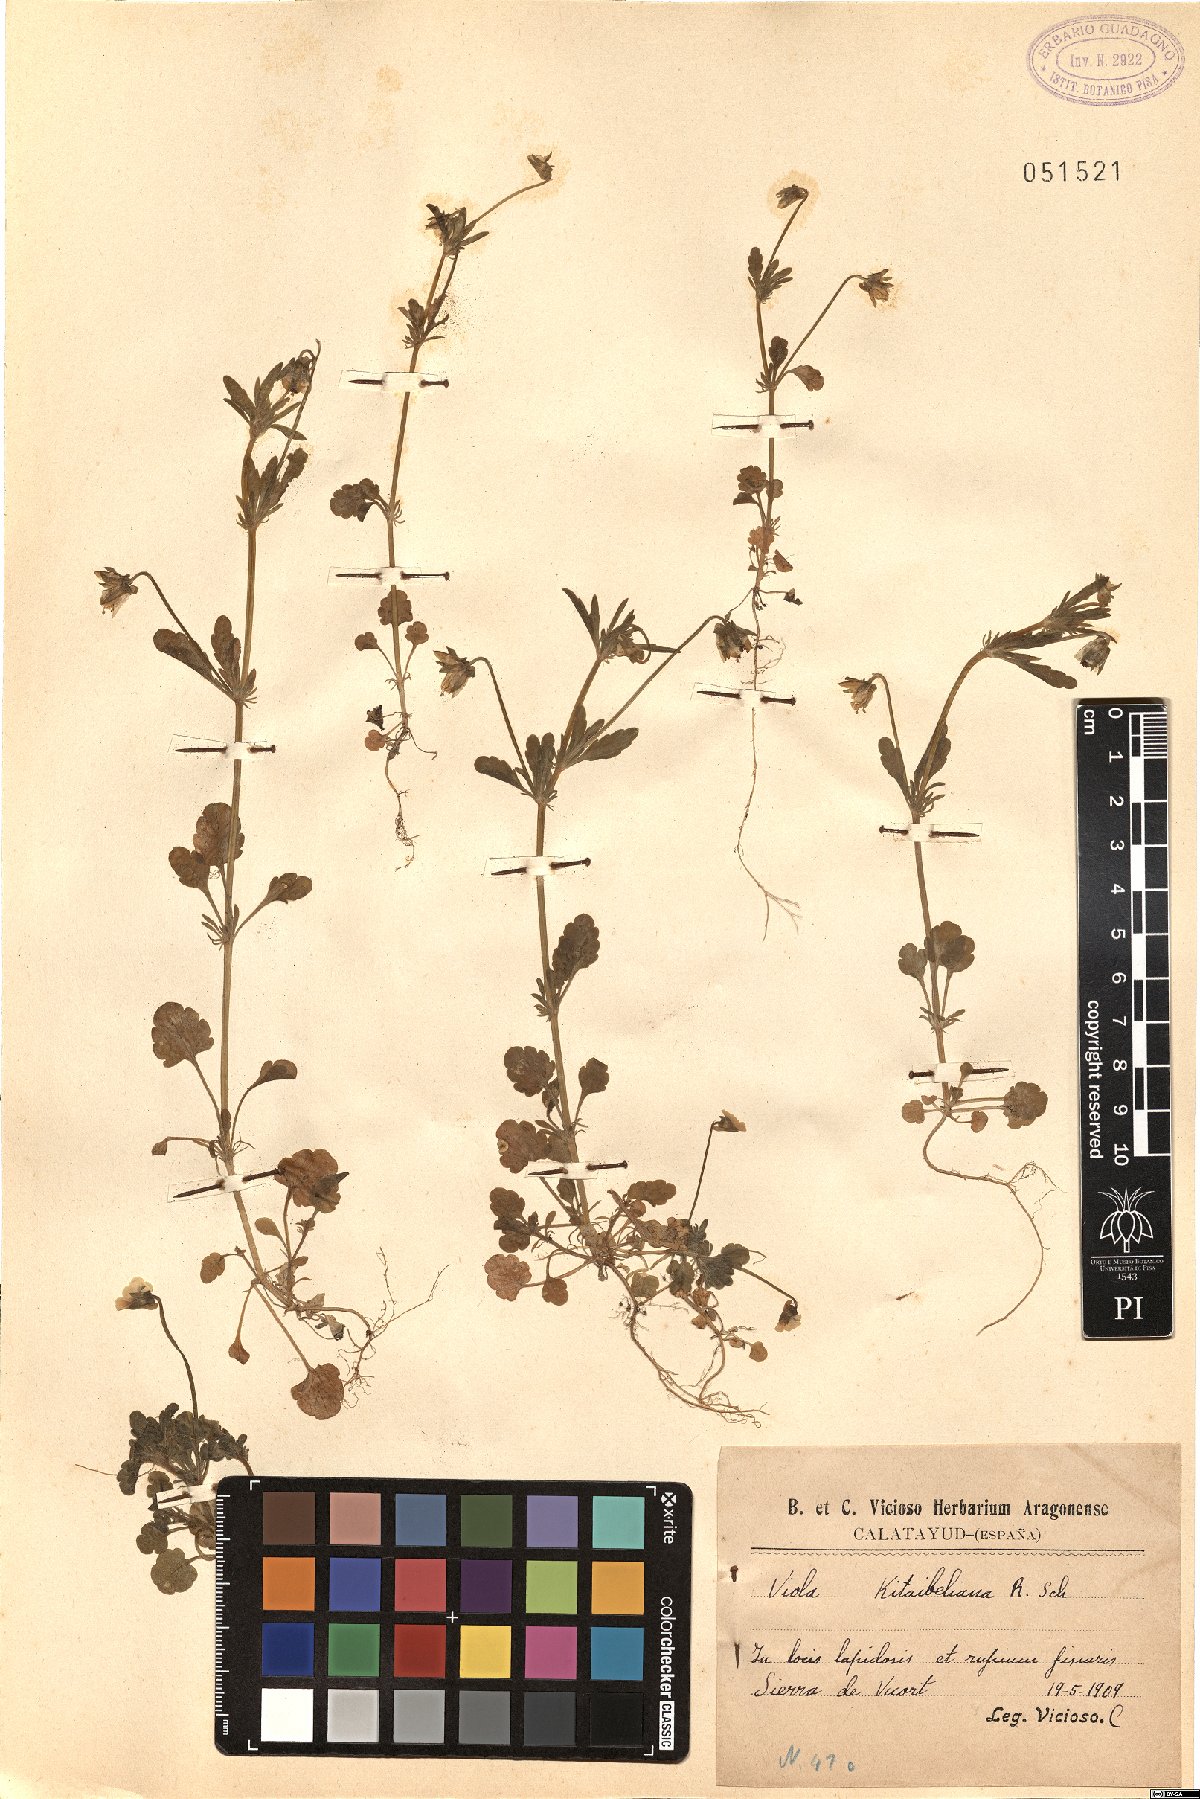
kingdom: Plantae
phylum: Tracheophyta
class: Magnoliopsida
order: Malpighiales
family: Violaceae
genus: Viola
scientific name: Viola kitaibeliana
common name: Dwarf pansy
